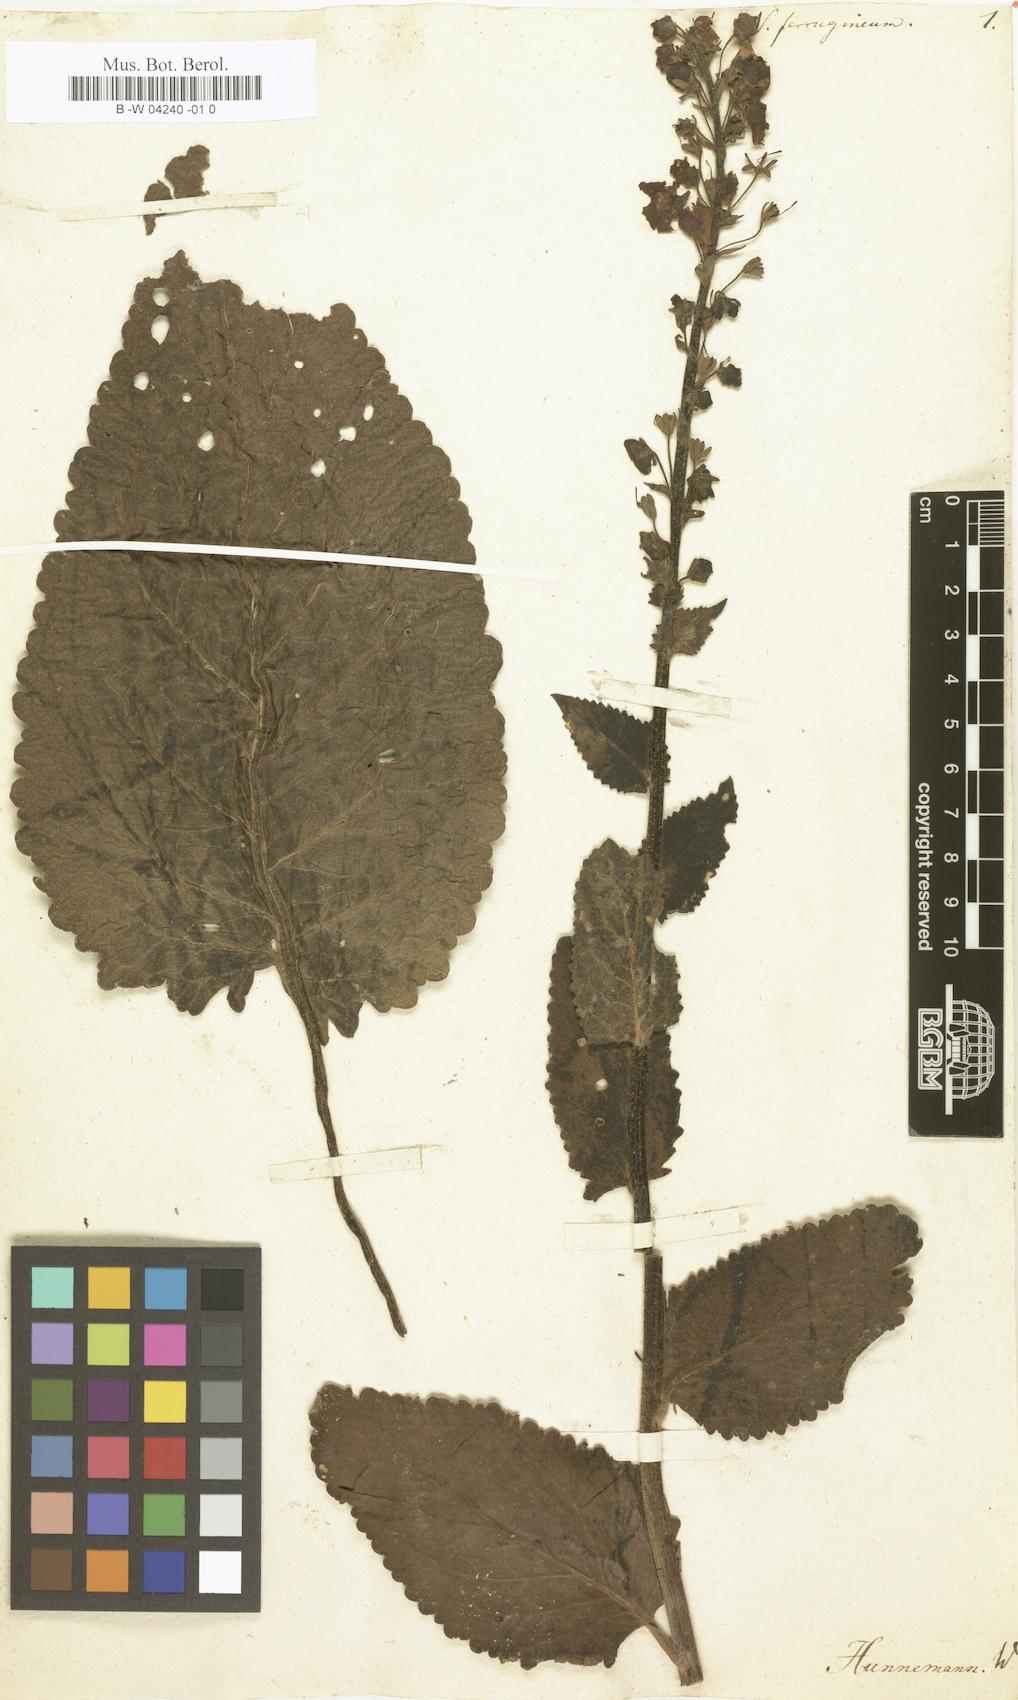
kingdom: Plantae
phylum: Tracheophyta
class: Magnoliopsida
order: Lamiales
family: Scrophulariaceae
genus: Verbascum
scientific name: Verbascum phoeniceum
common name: Purple mullein
